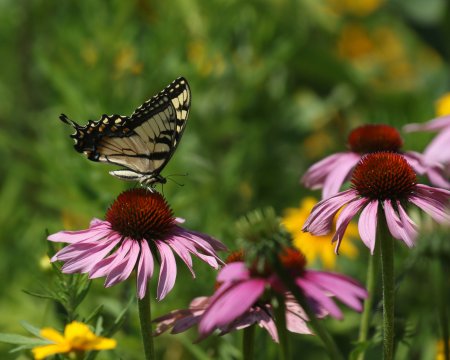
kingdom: Animalia
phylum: Arthropoda
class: Insecta
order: Lepidoptera
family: Papilionidae
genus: Pterourus
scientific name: Pterourus glaucus
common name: Eastern Tiger Swallowtail
